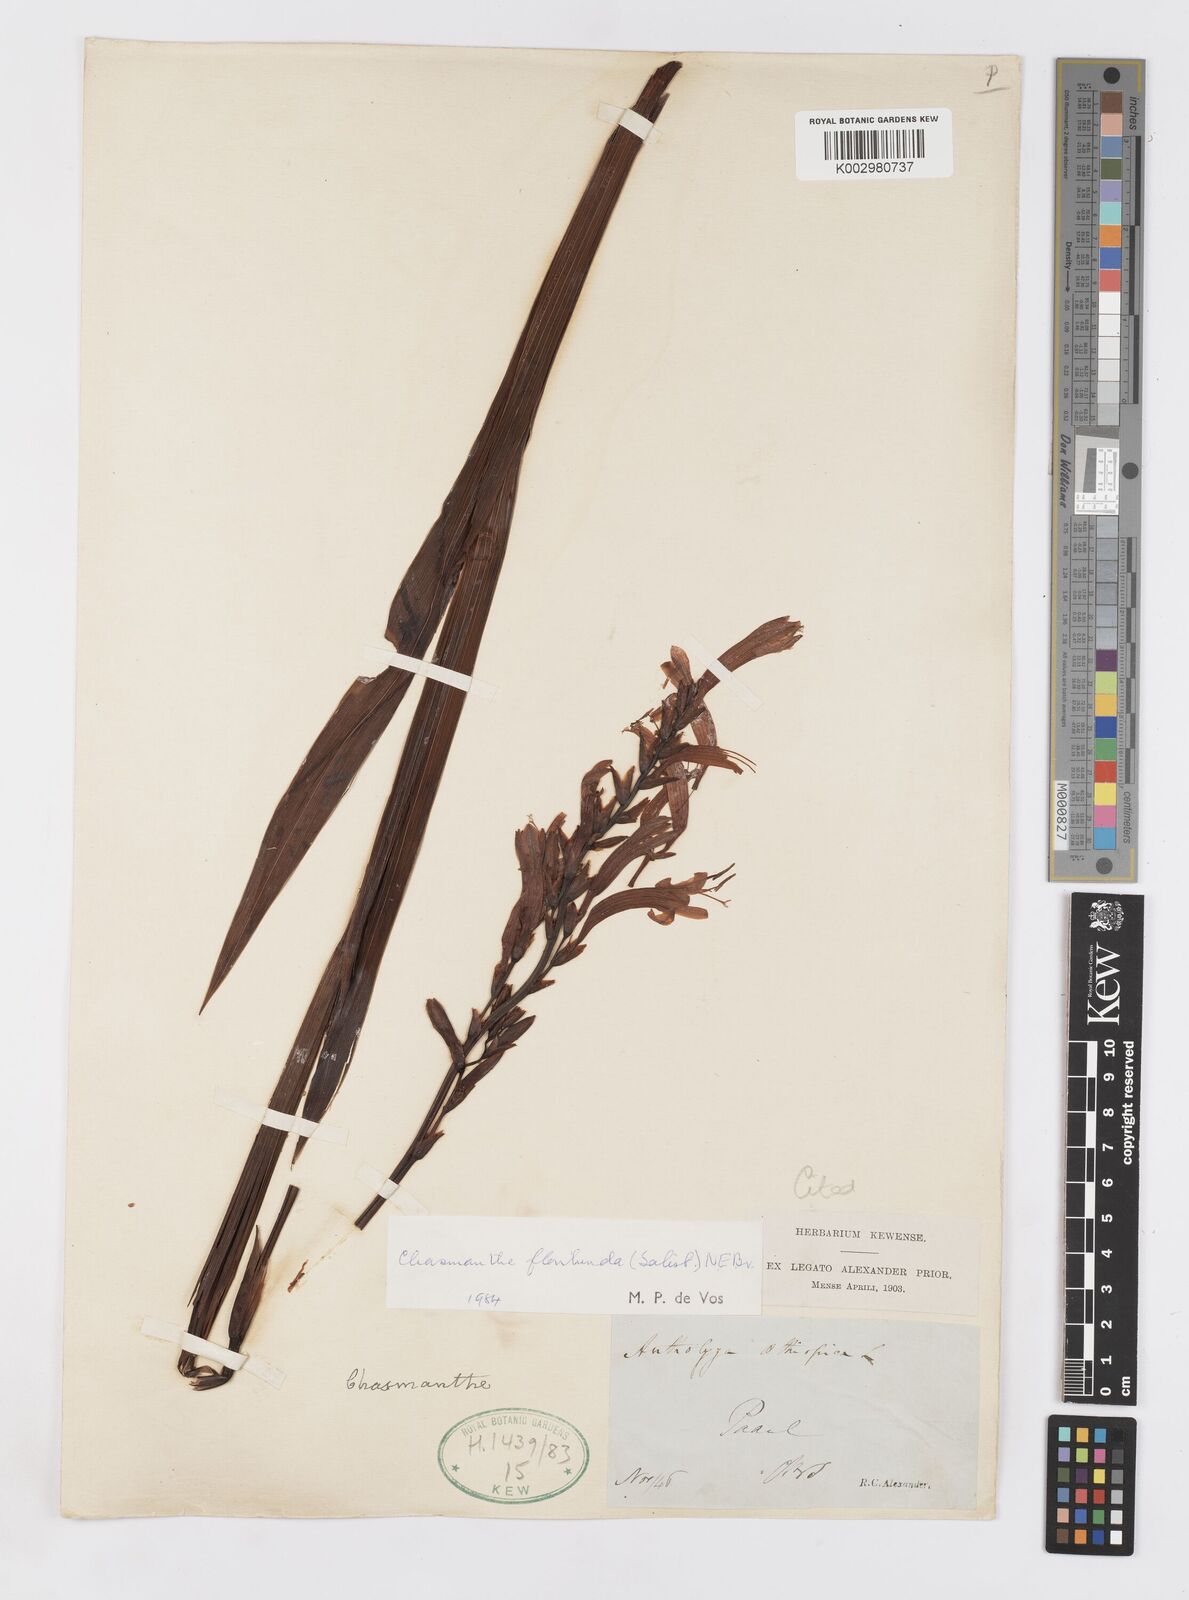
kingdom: Plantae
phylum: Tracheophyta
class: Liliopsida
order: Asparagales
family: Iridaceae
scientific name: Iridaceae
